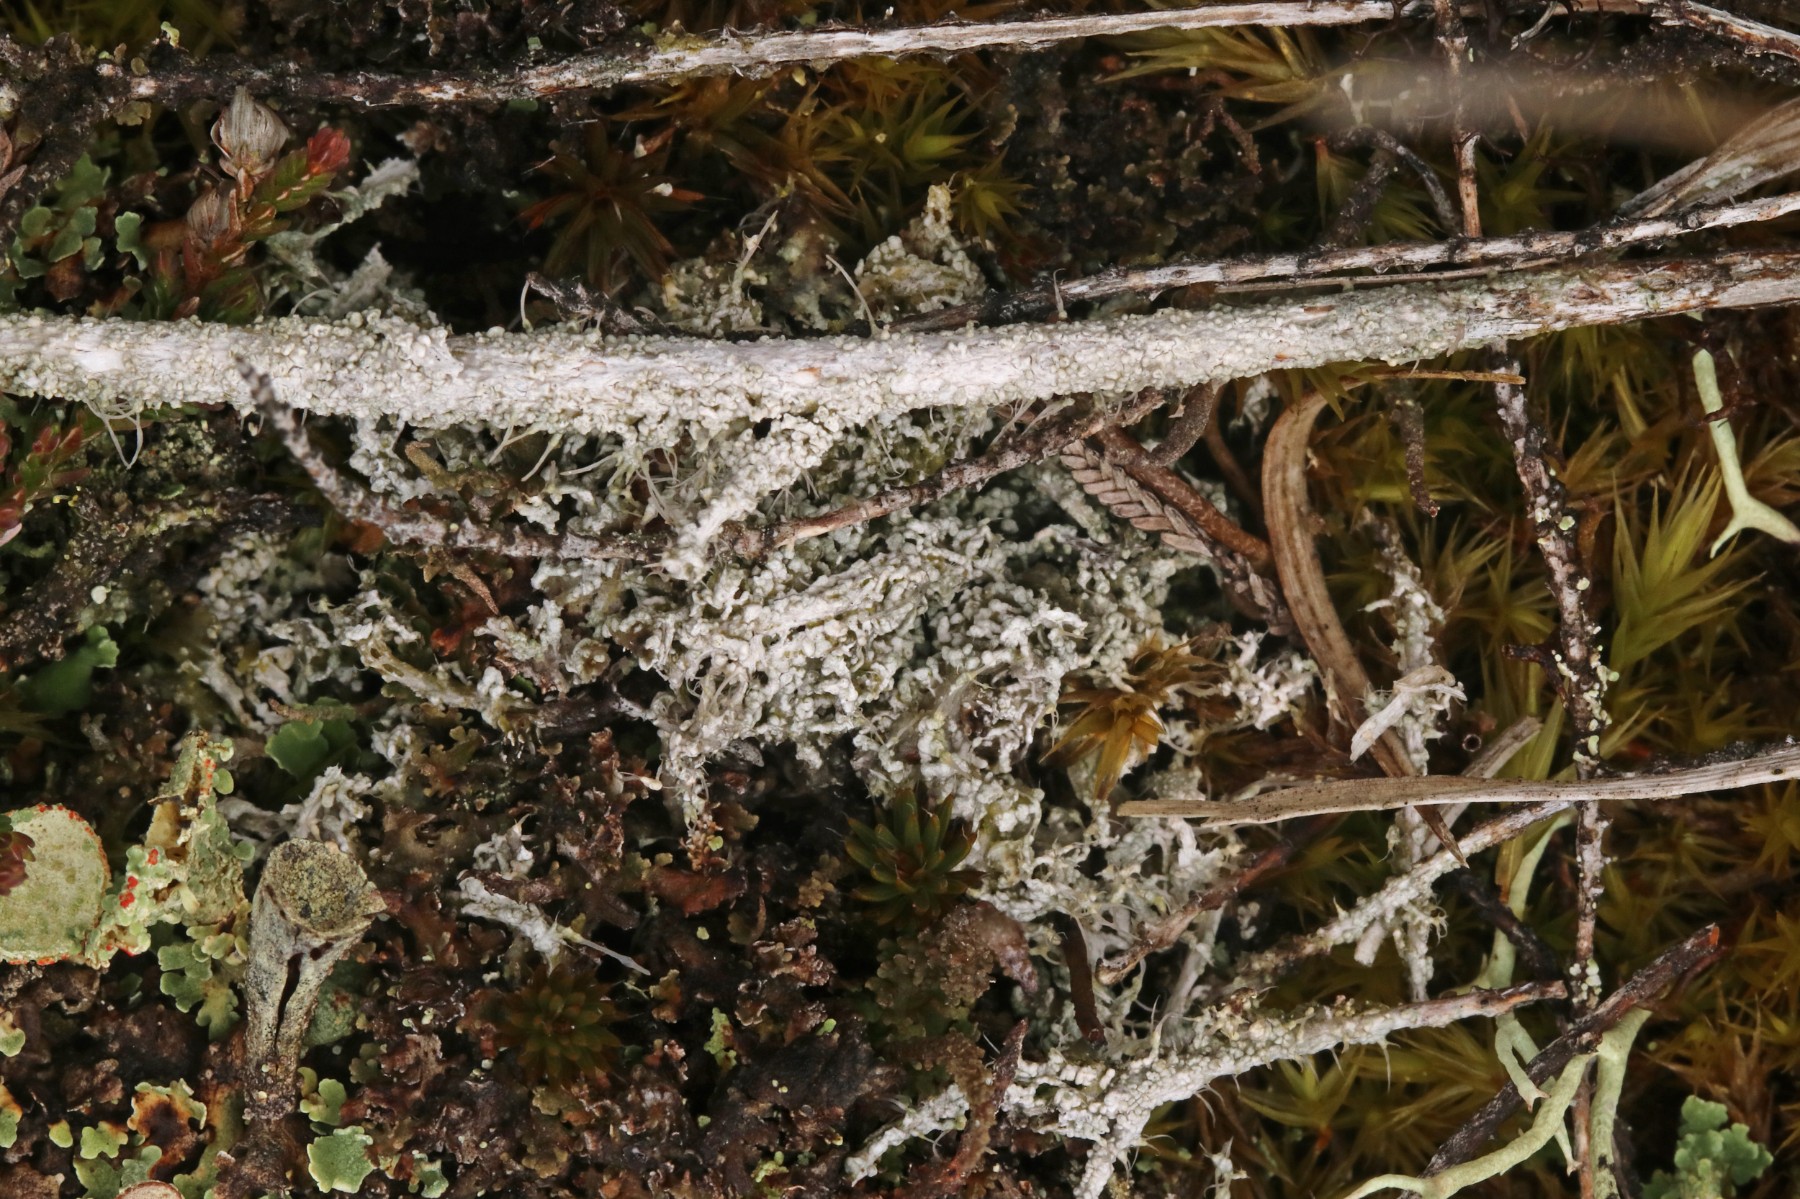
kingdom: Fungi
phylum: Ascomycota
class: Lecanoromycetes
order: Pertusariales
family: Ochrolechiaceae
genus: Ochrolechia
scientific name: Ochrolechia frigida
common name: fjeld-blegskivelav
